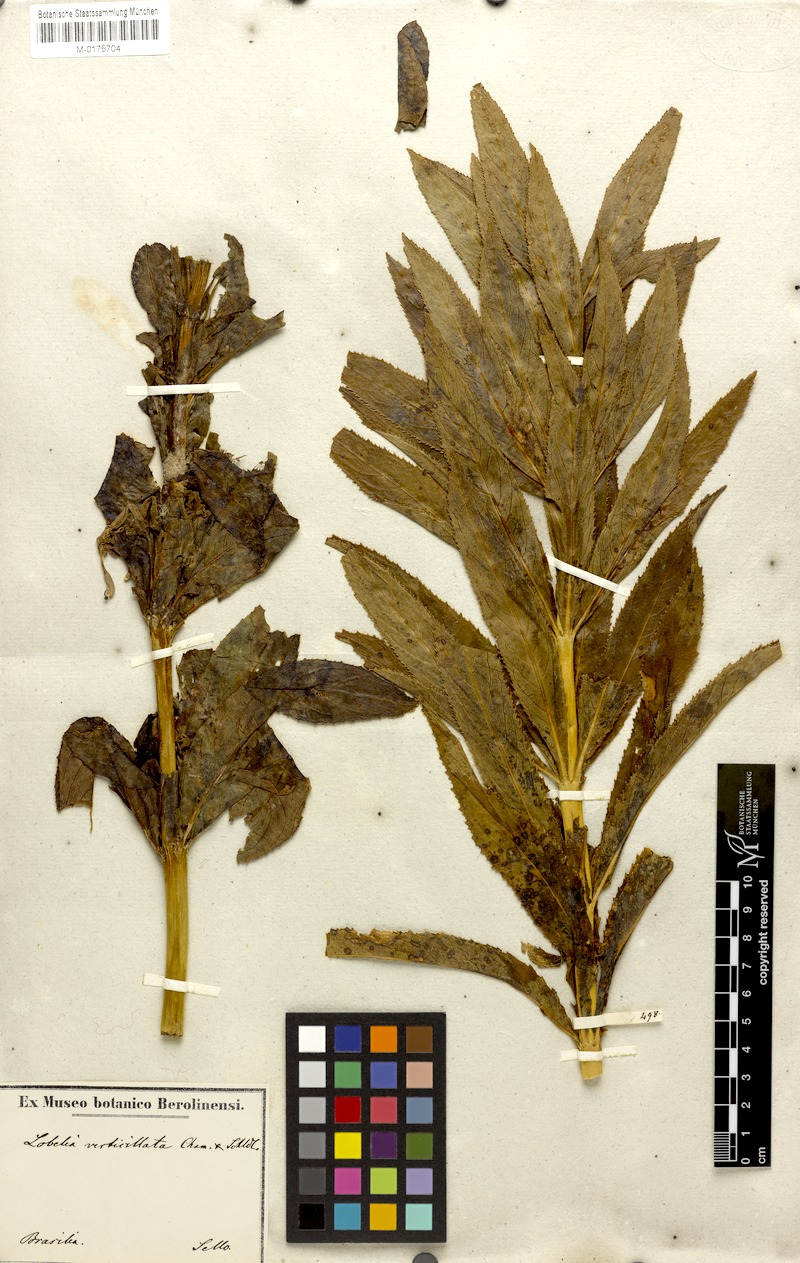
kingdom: Plantae
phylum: Tracheophyta
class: Magnoliopsida
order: Asterales
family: Campanulaceae
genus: Siphocampylus
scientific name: Siphocampylus verticillatus
